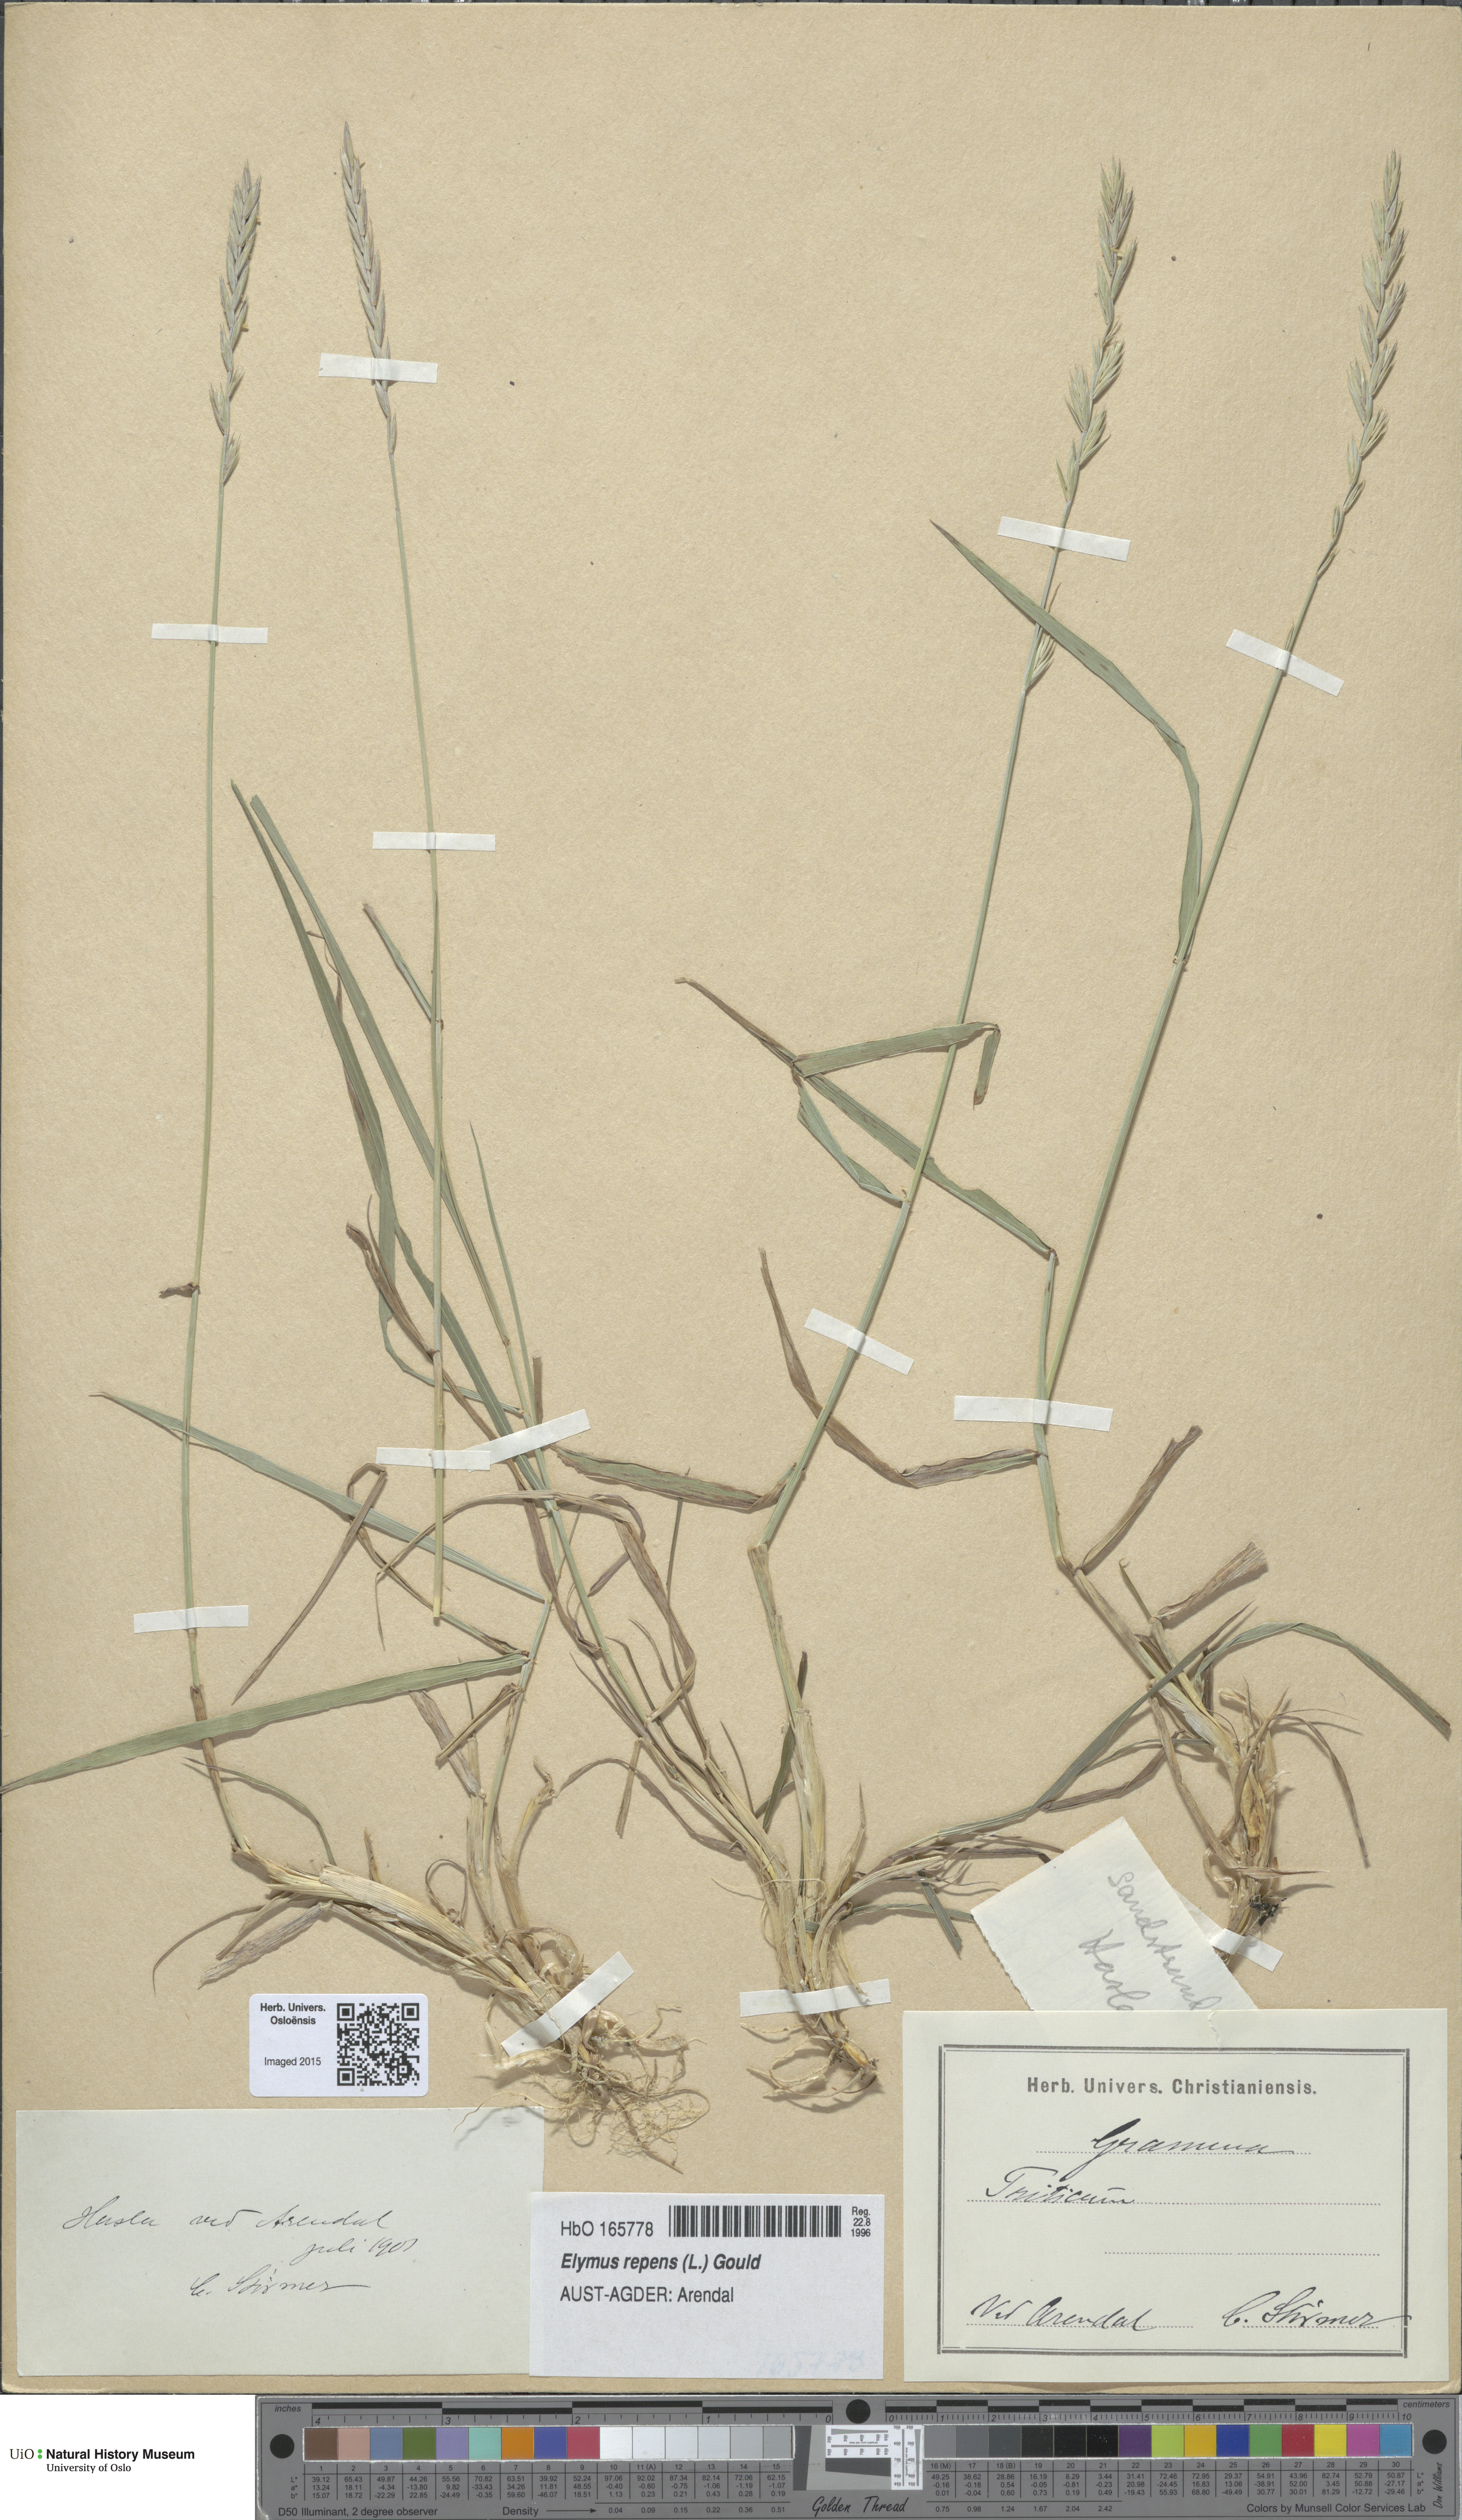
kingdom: Plantae
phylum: Tracheophyta
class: Liliopsida
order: Poales
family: Poaceae
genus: Elymus
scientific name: Elymus repens
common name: Quackgrass
